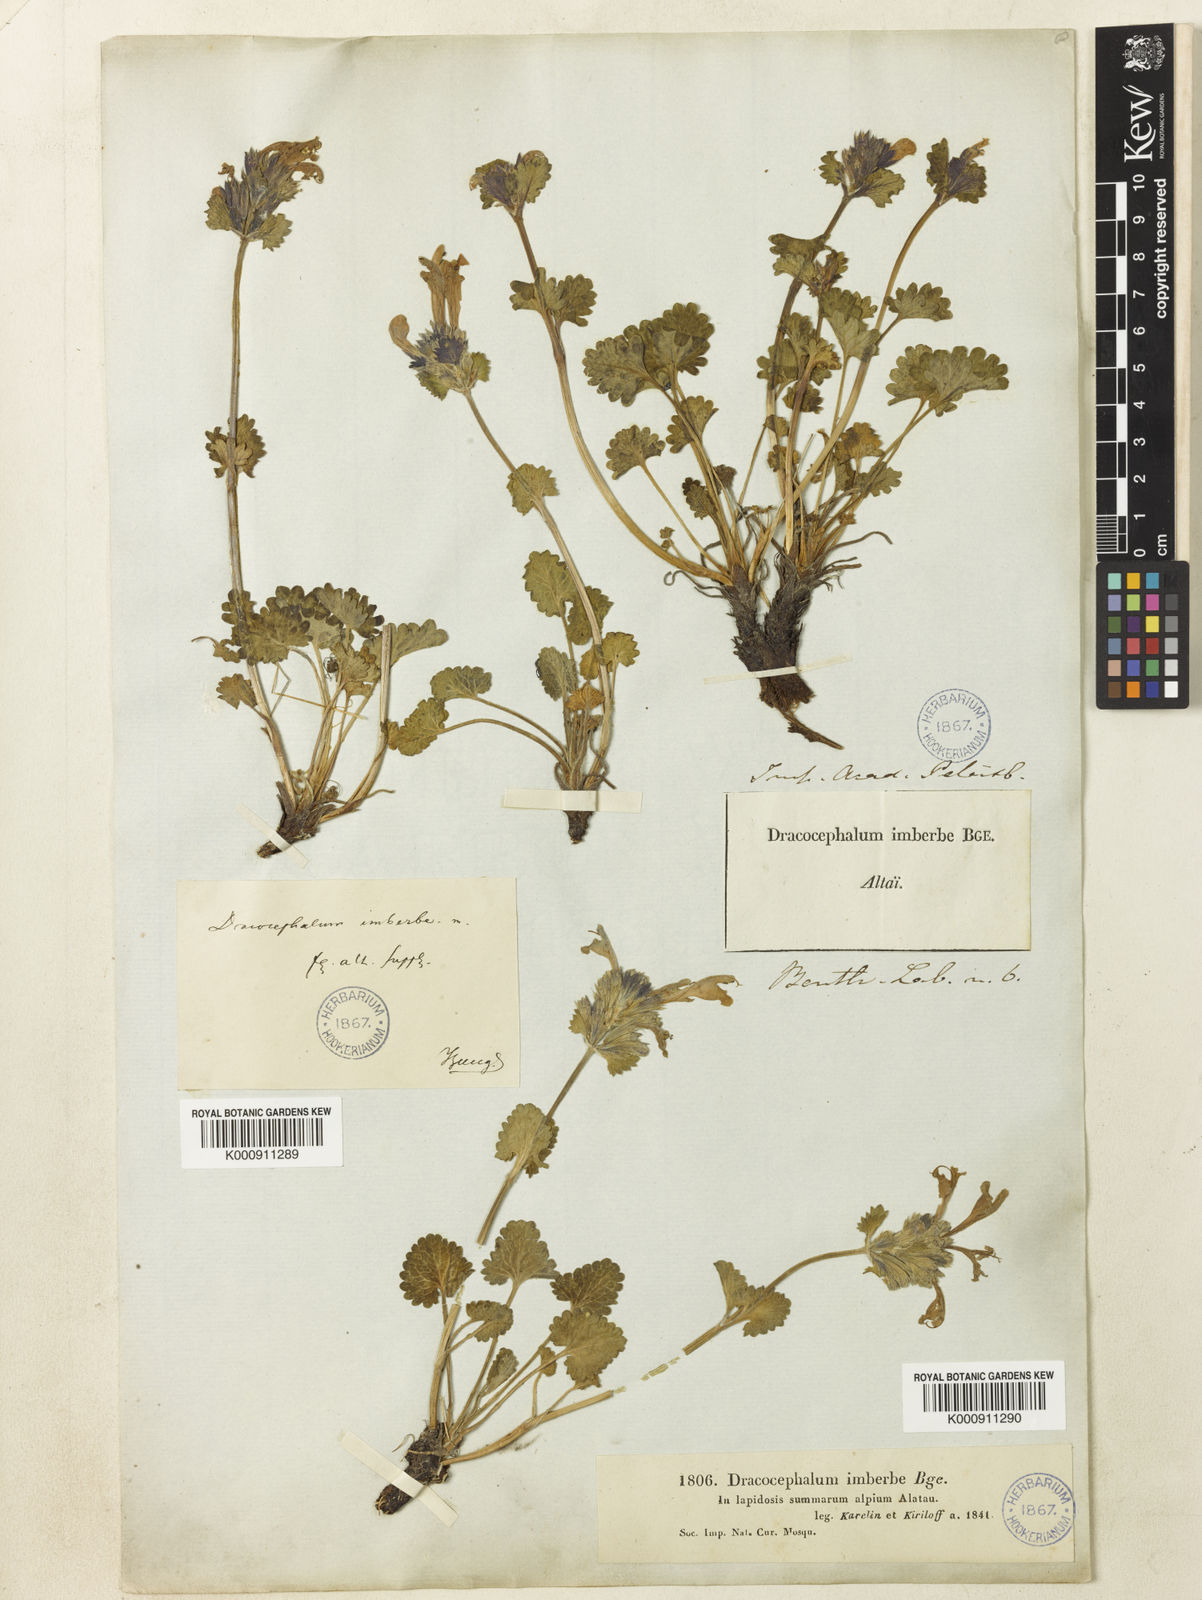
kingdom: Plantae
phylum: Tracheophyta
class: Magnoliopsida
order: Lamiales
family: Lamiaceae
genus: Dracocephalum
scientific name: Dracocephalum imberbe
